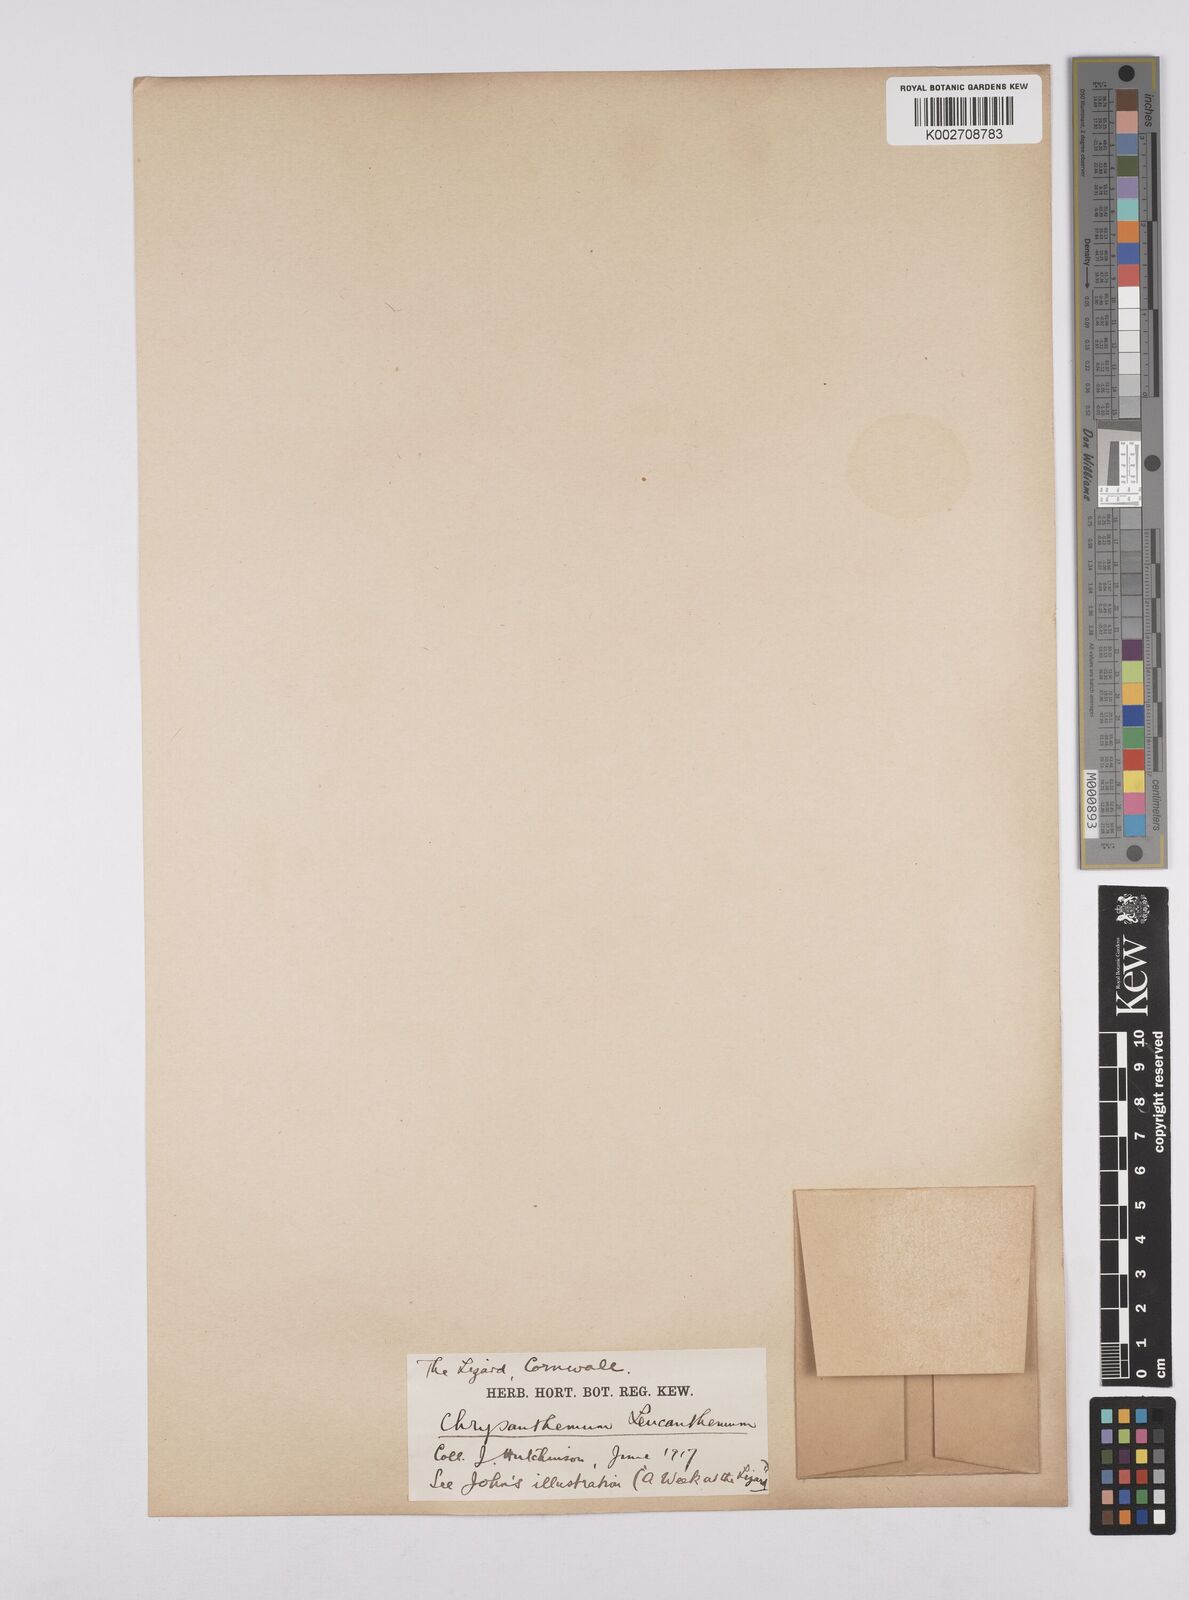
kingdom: Plantae
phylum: Tracheophyta
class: Magnoliopsida
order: Asterales
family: Asteraceae
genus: Leucanthemum
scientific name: Leucanthemum vulgare
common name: Oxeye daisy
